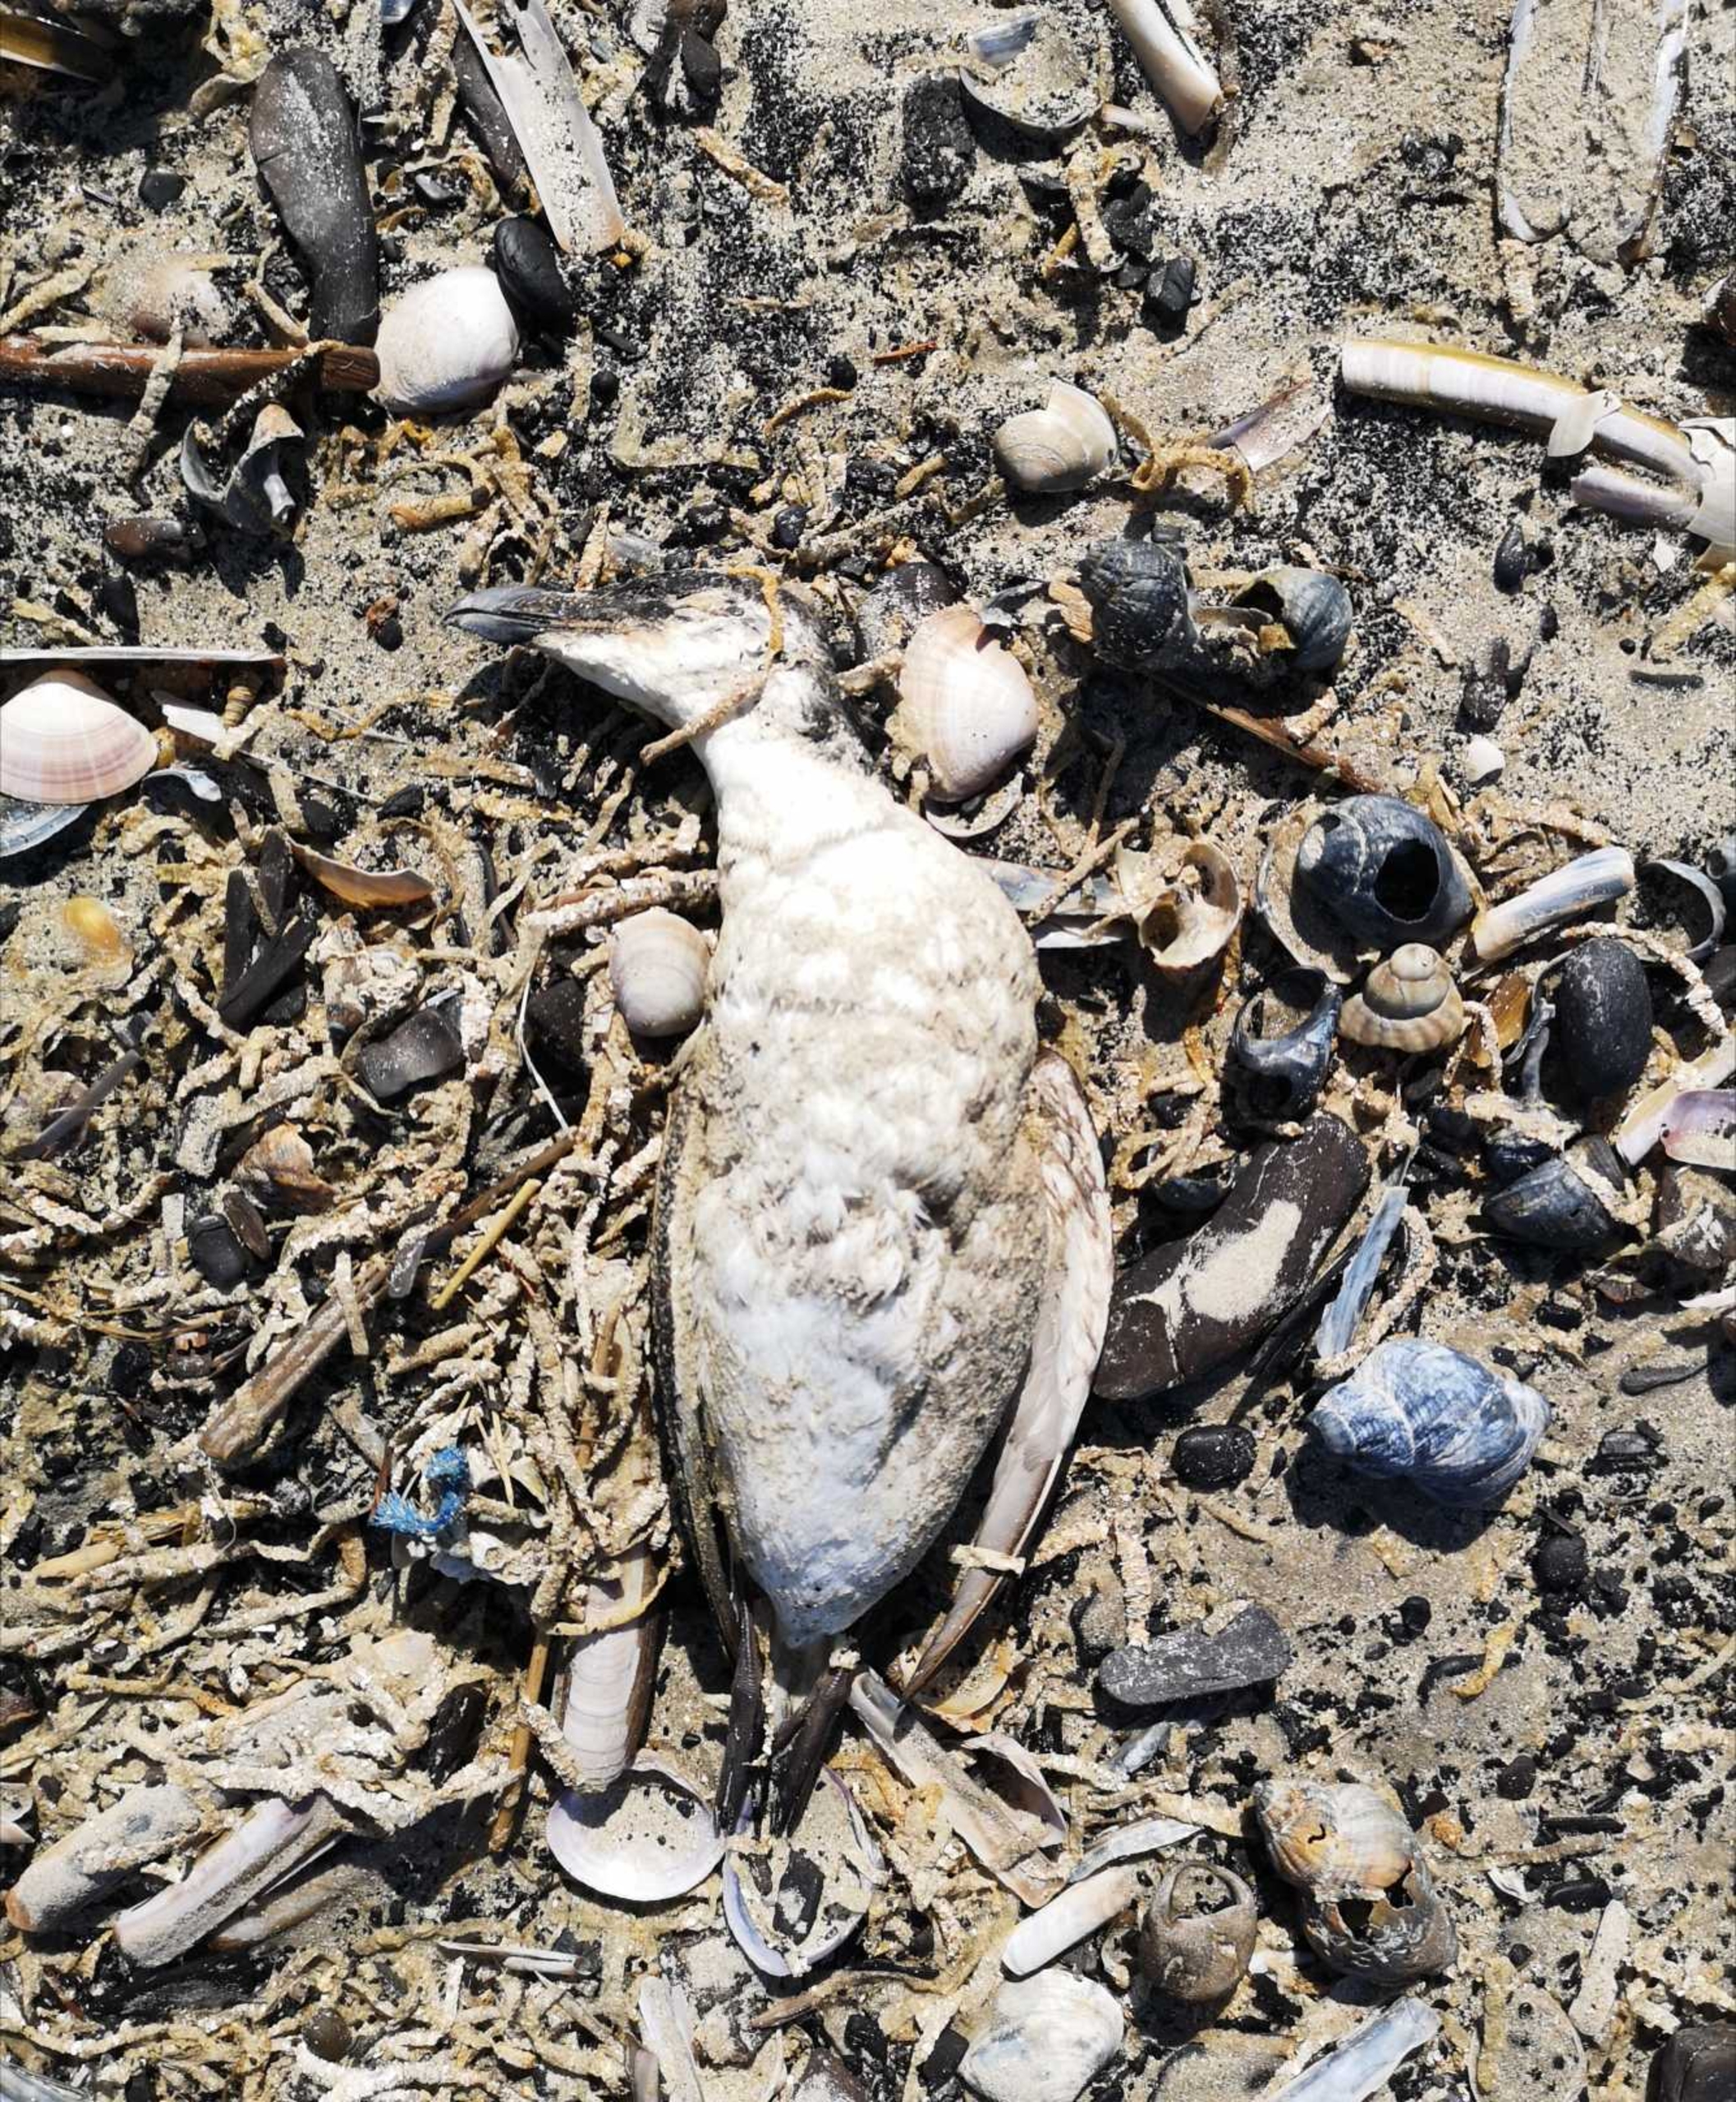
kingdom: Animalia
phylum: Chordata
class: Aves
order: Charadriiformes
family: Alcidae
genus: Alca
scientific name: Alca torda
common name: Alk
